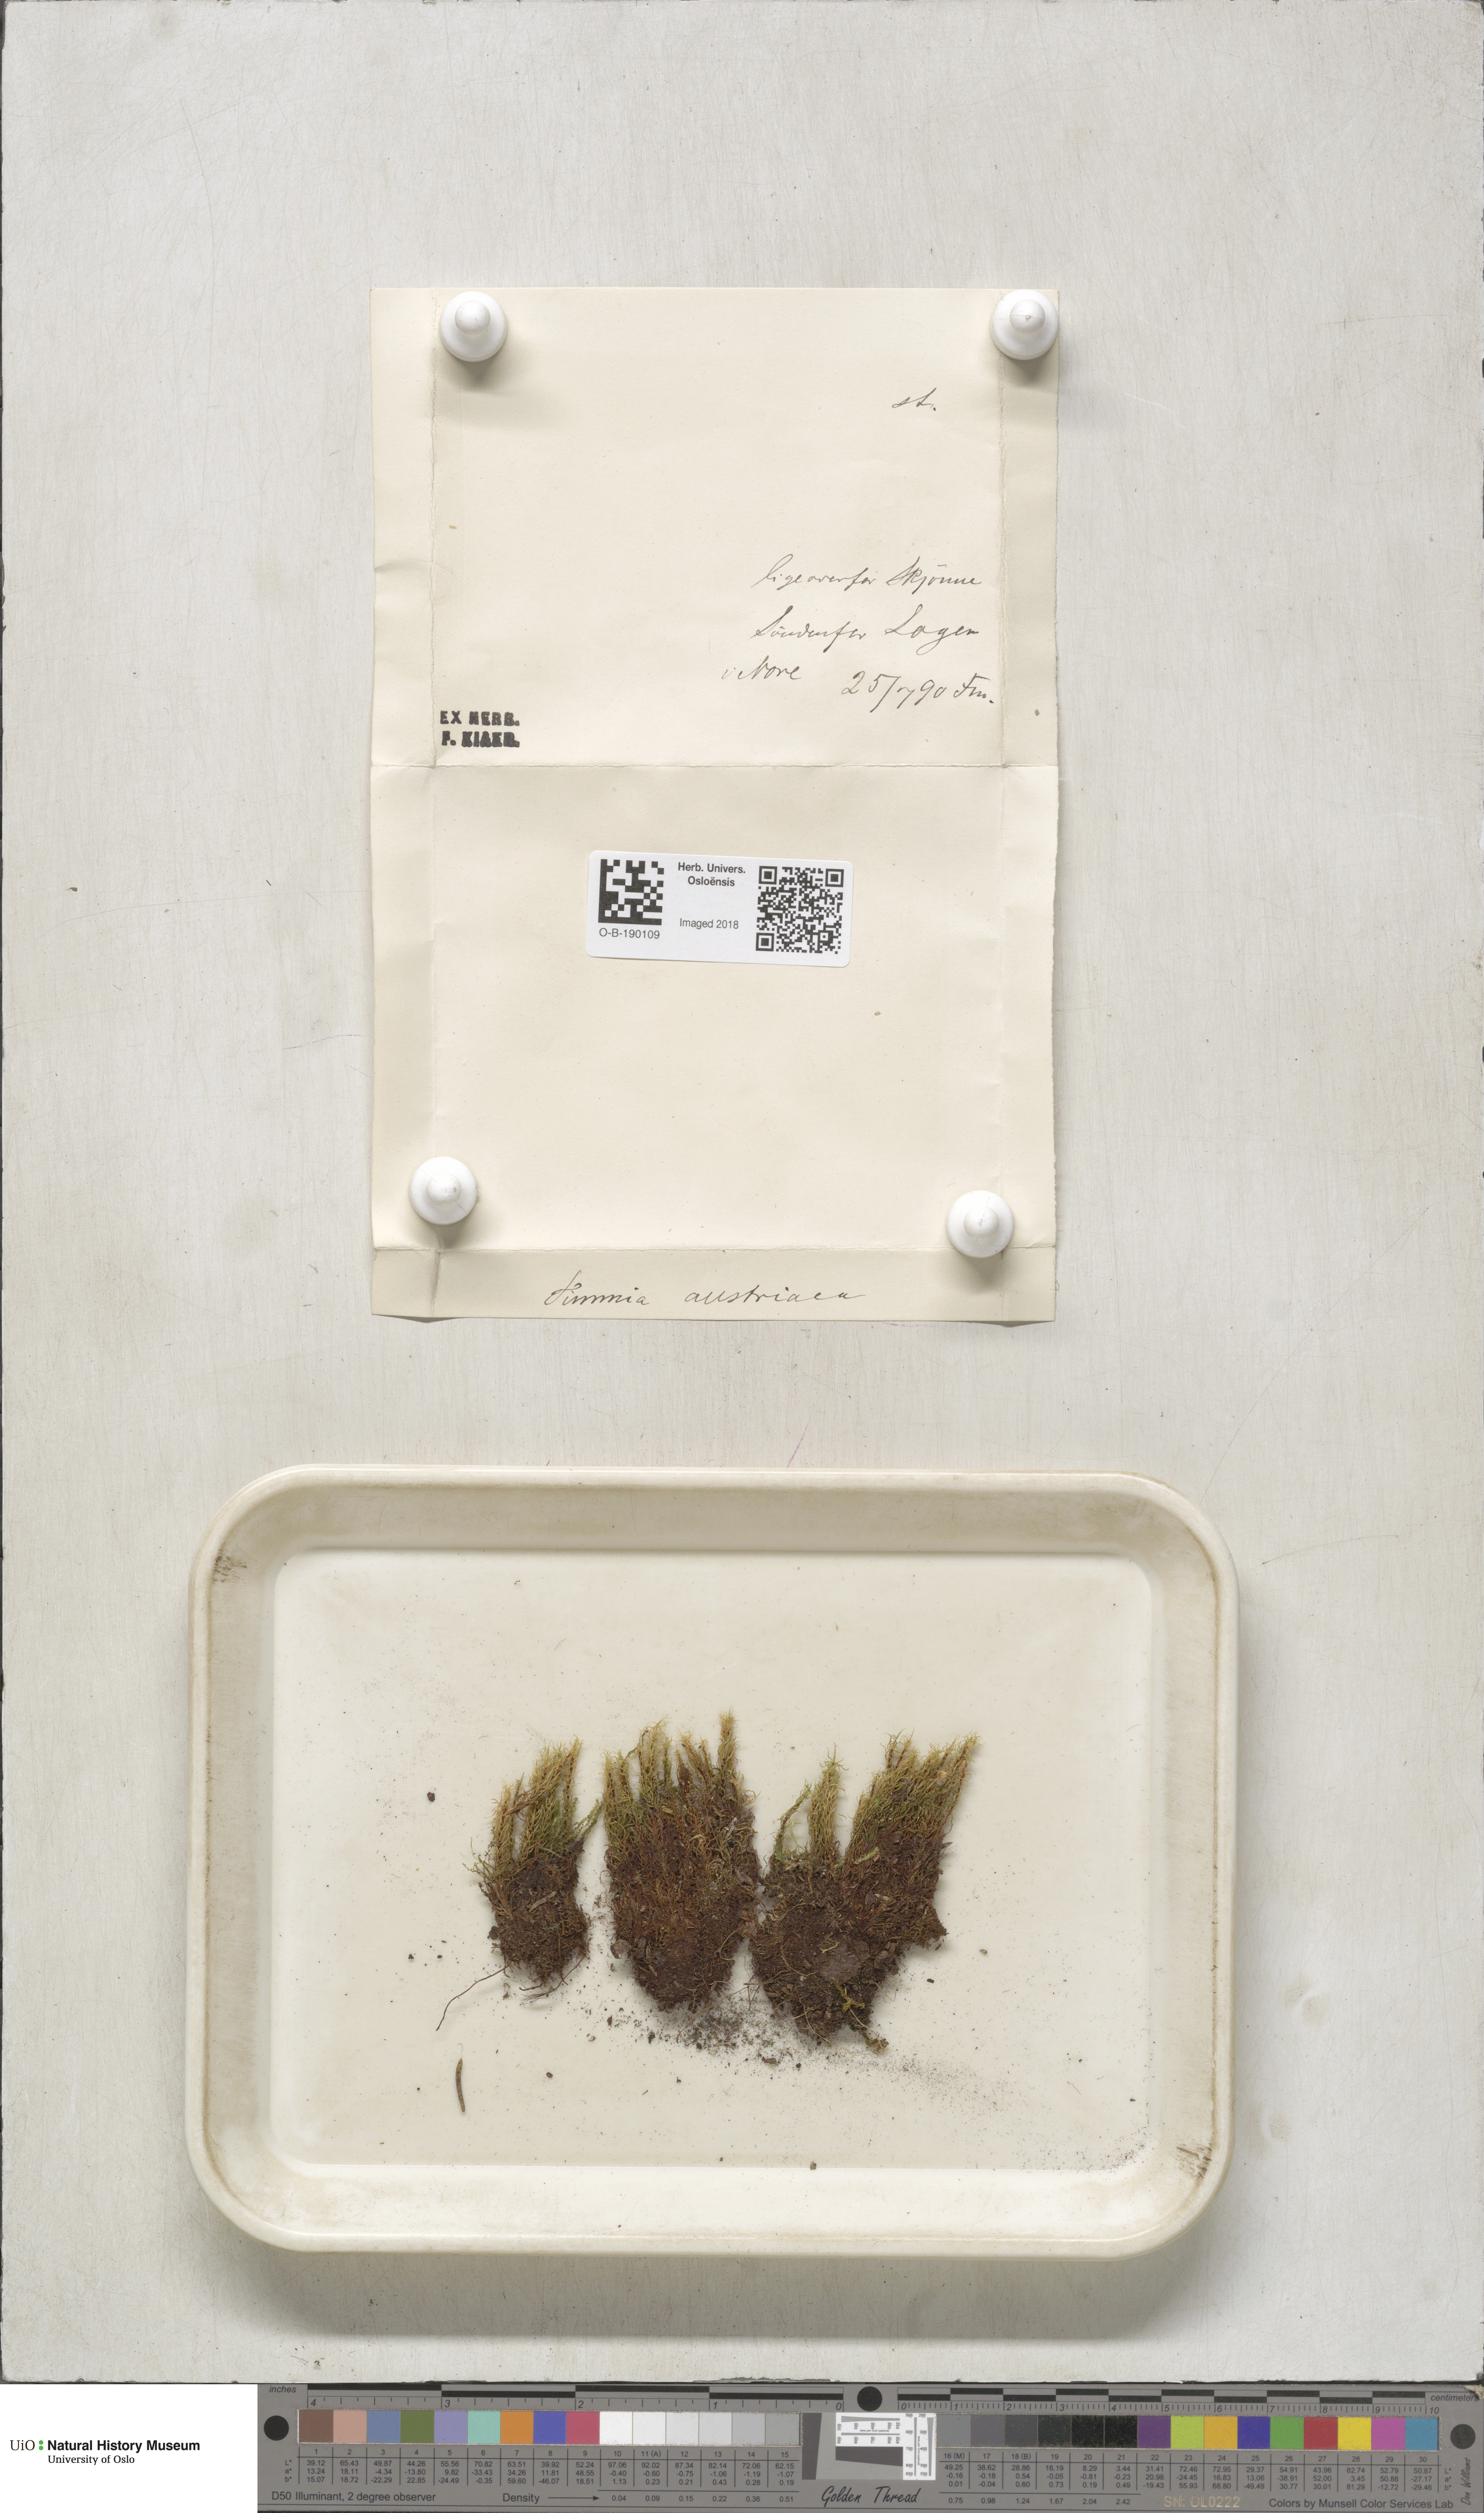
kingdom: Plantae
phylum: Bryophyta
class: Bryopsida
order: Timmiales
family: Timmiaceae
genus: Timmia
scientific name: Timmia austriaca
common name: Austrian timmia
